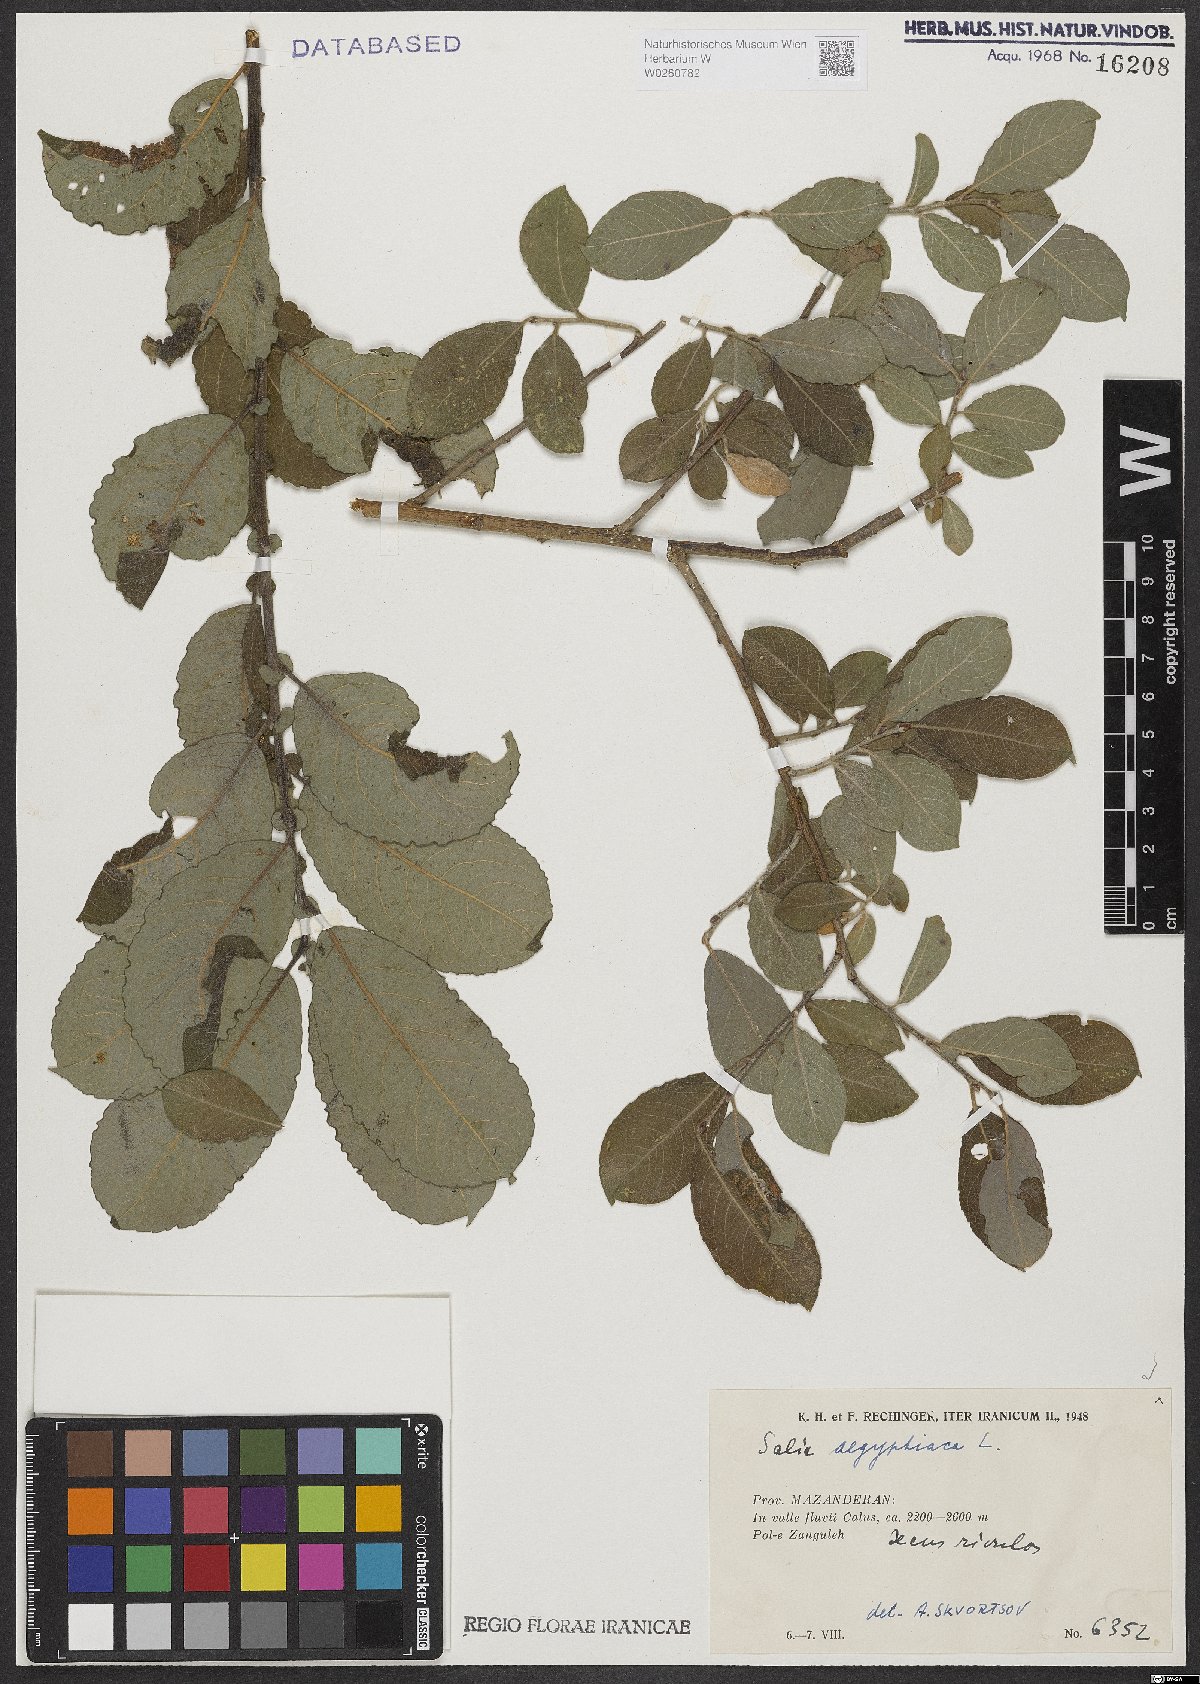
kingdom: Plantae
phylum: Tracheophyta
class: Magnoliopsida
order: Malpighiales
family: Salicaceae
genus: Salix
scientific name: Salix aegyptiaca
